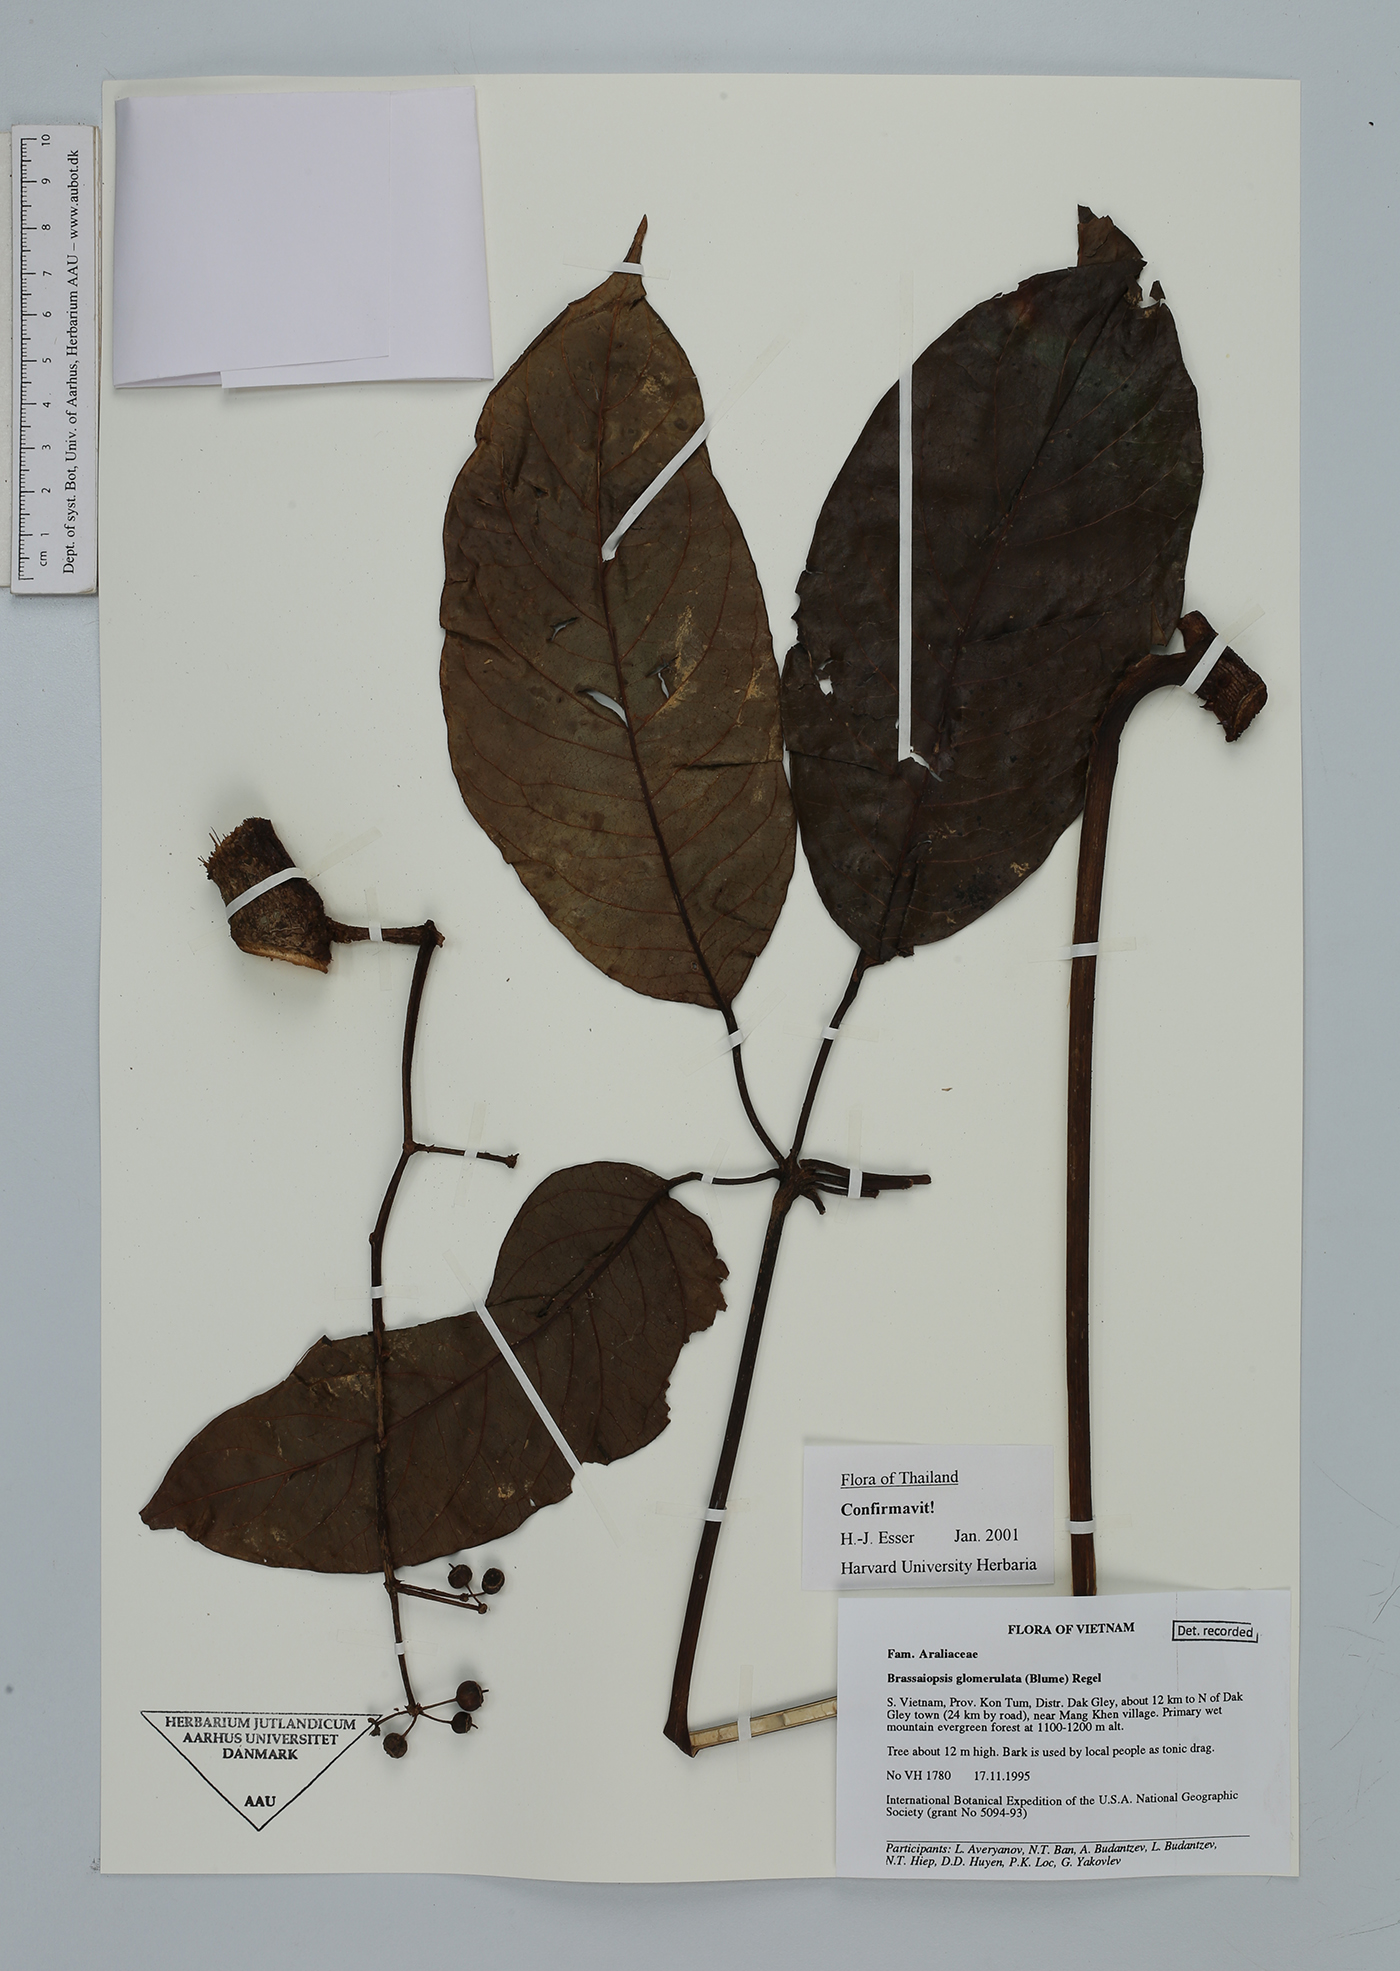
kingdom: Plantae
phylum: Tracheophyta
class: Magnoliopsida
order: Apiales
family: Araliaceae
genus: Brassaiopsis
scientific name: Brassaiopsis glomerulata
